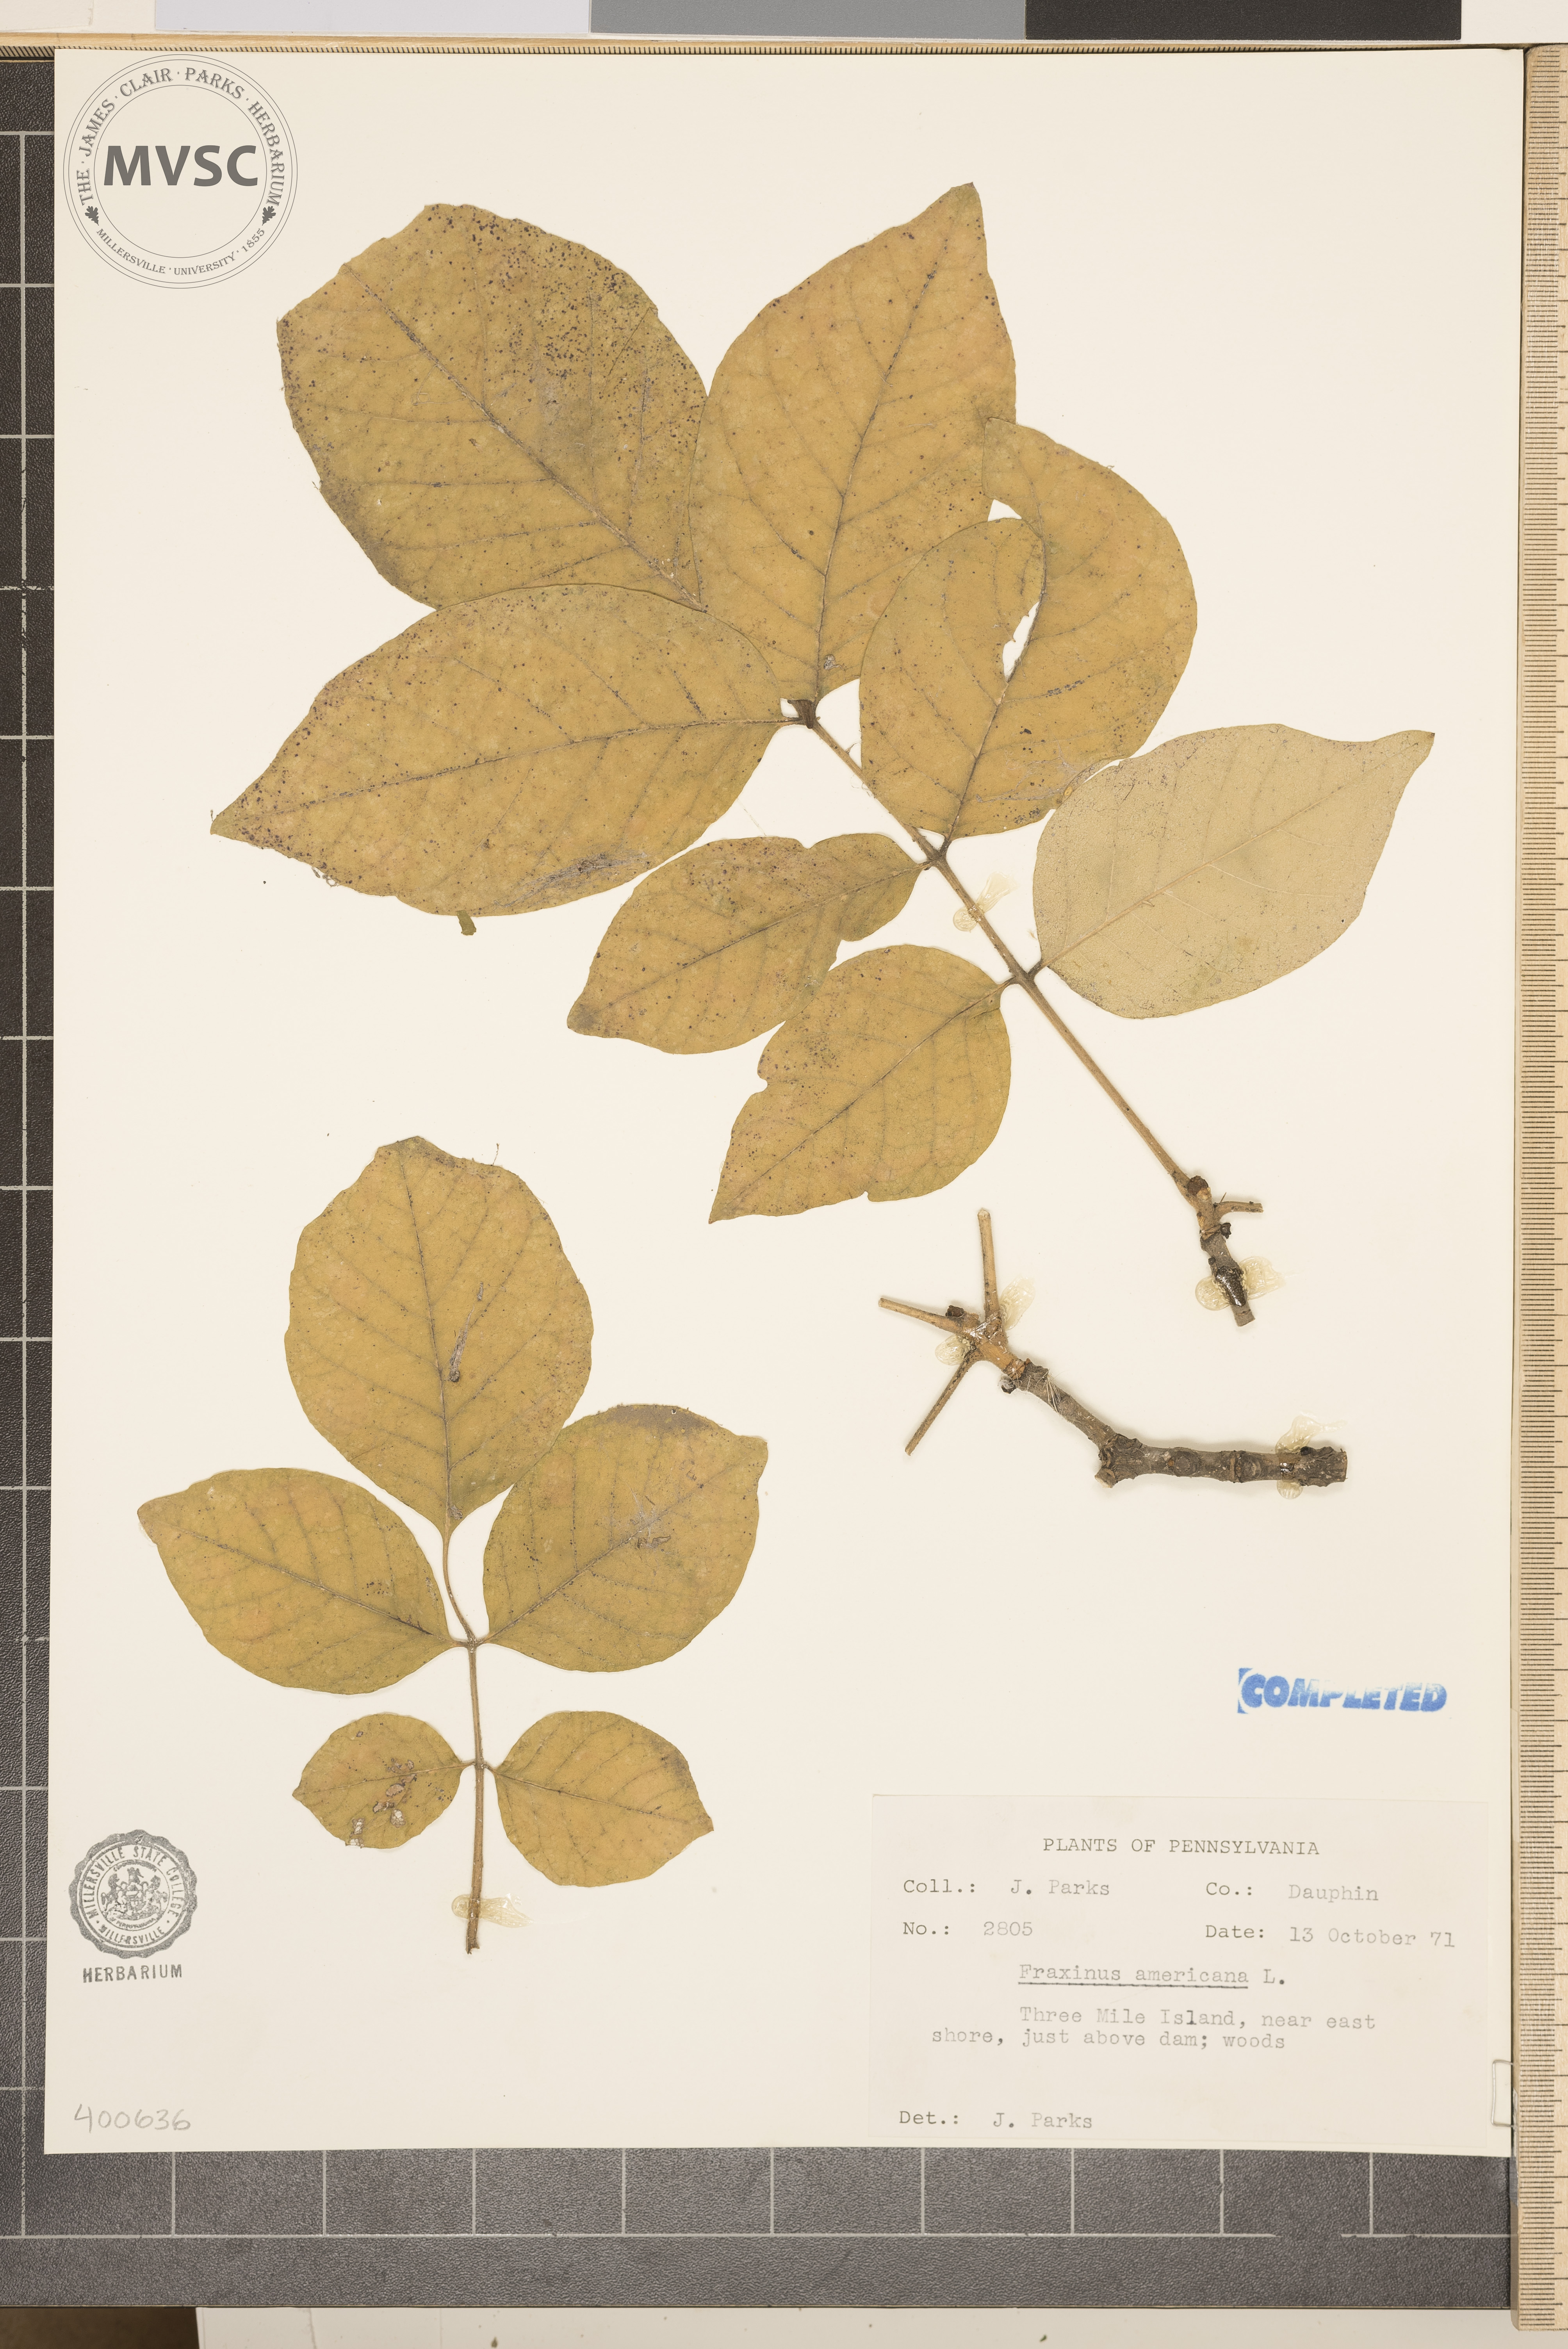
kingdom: Plantae
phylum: Tracheophyta
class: Magnoliopsida
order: Lamiales
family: Oleaceae
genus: Fraxinus
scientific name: Fraxinus americana
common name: ash
